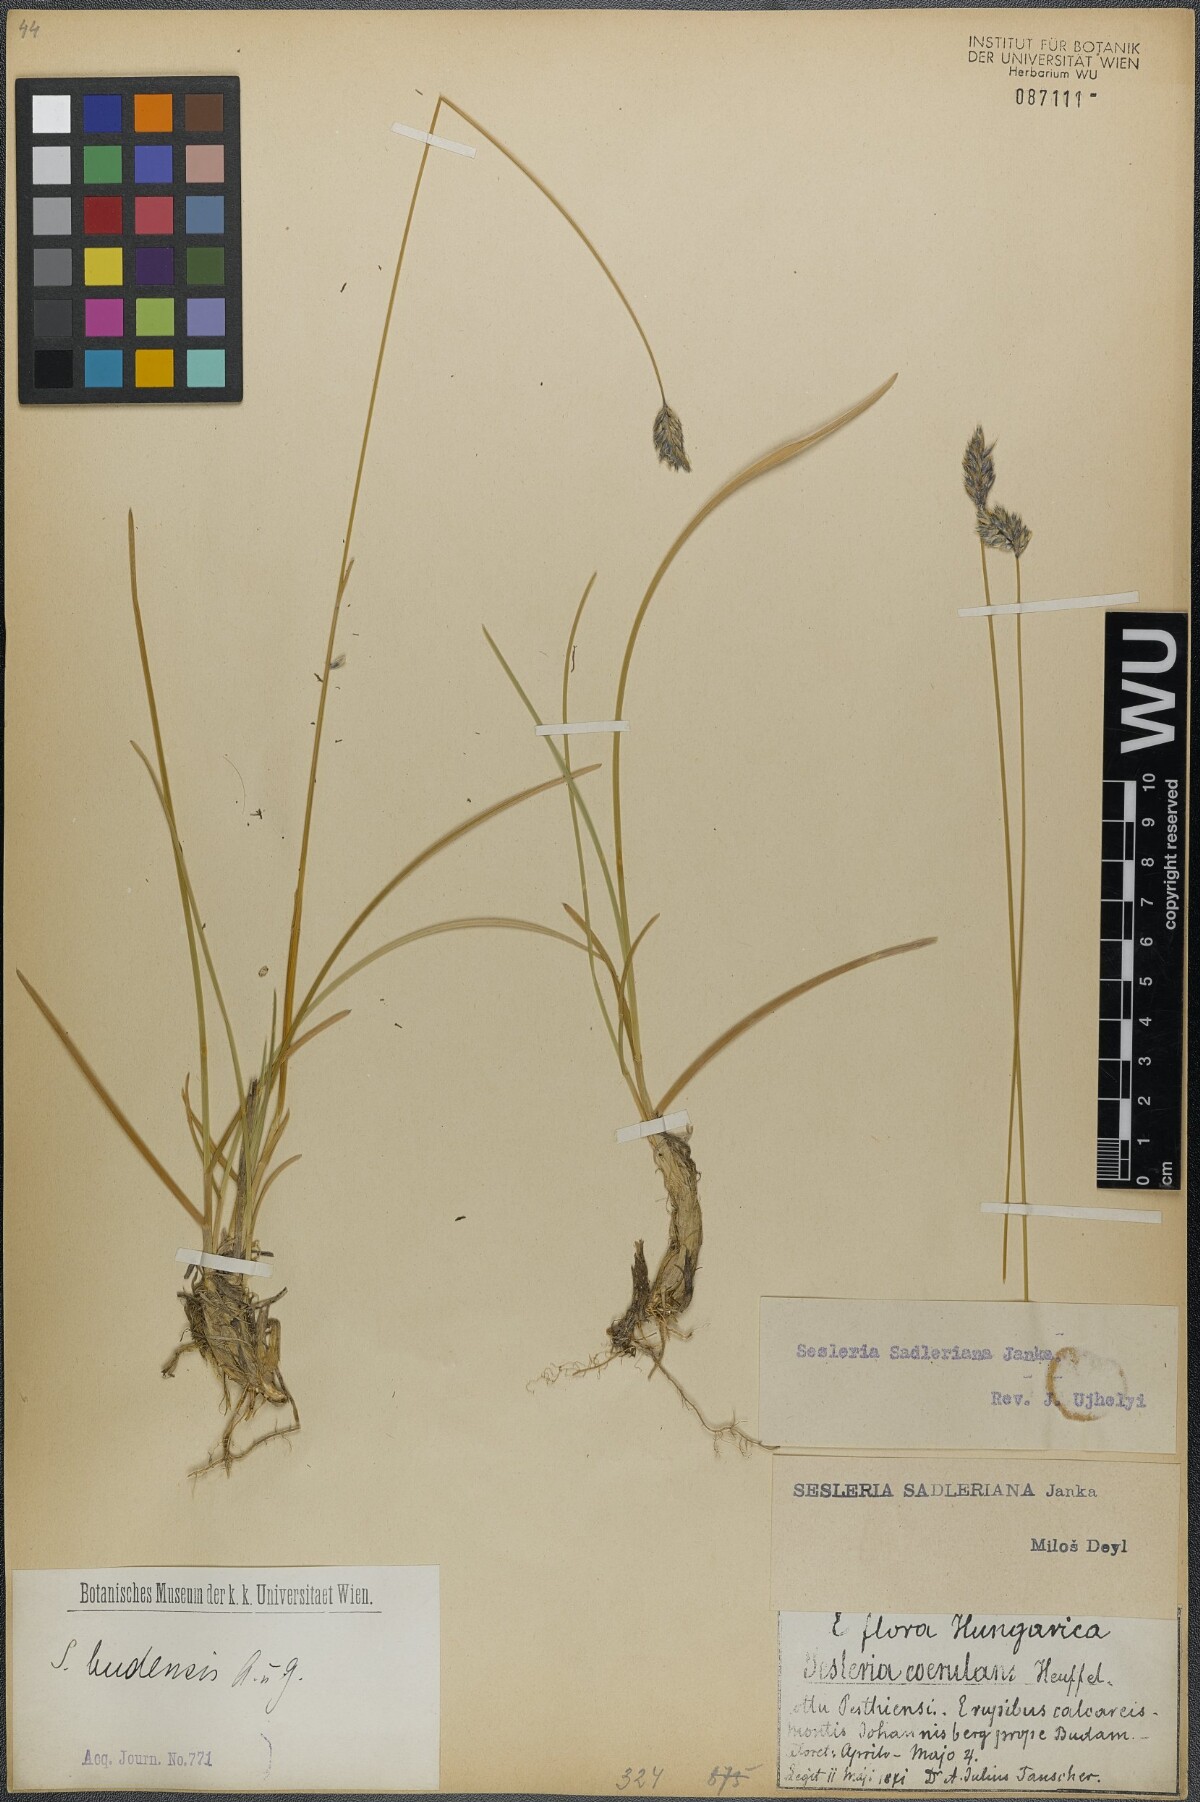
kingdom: Plantae
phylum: Tracheophyta
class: Liliopsida
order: Poales
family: Poaceae
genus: Sesleria
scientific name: Sesleria sadleriana
